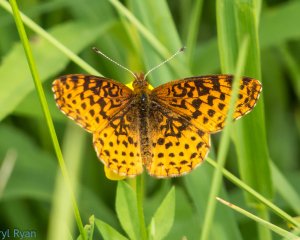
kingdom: Animalia
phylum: Arthropoda
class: Insecta
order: Lepidoptera
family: Nymphalidae
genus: Clossiana
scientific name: Clossiana toddi
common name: Meadow Fritillary
